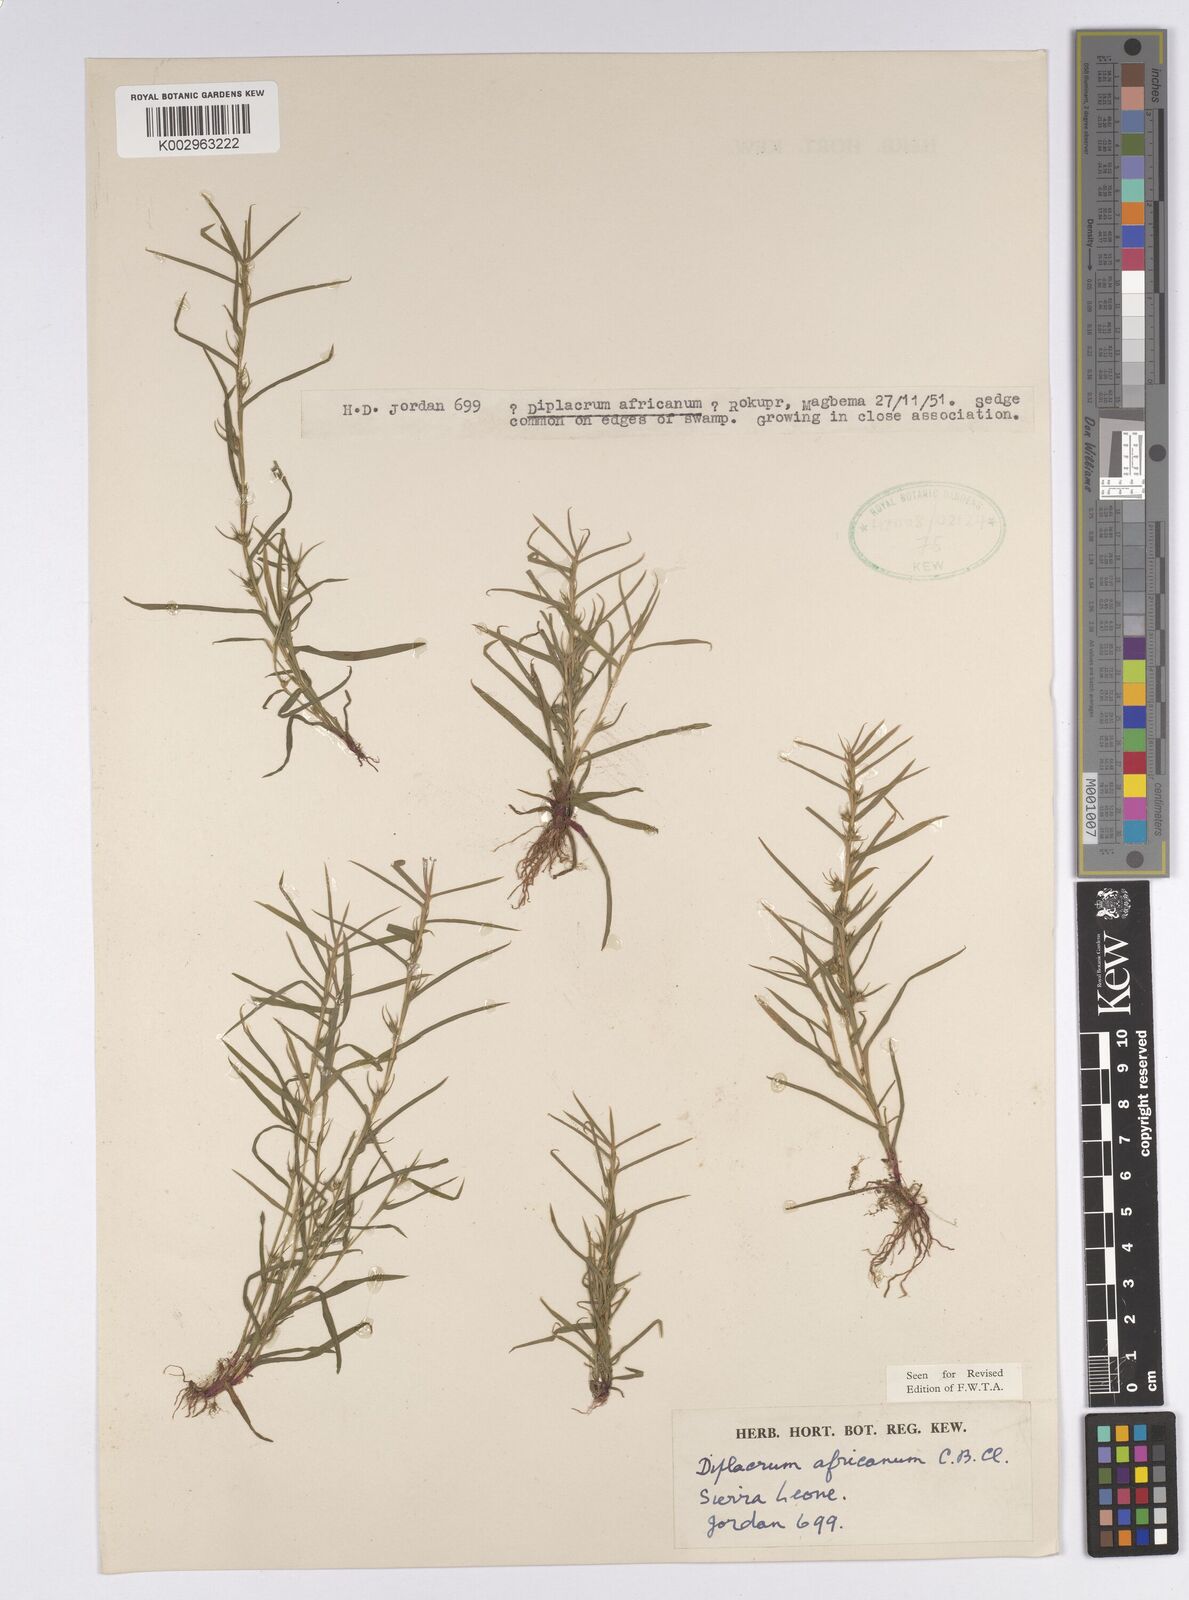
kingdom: Plantae
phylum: Tracheophyta
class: Liliopsida
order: Poales
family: Cyperaceae
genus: Diplacrum
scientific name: Diplacrum africanum
